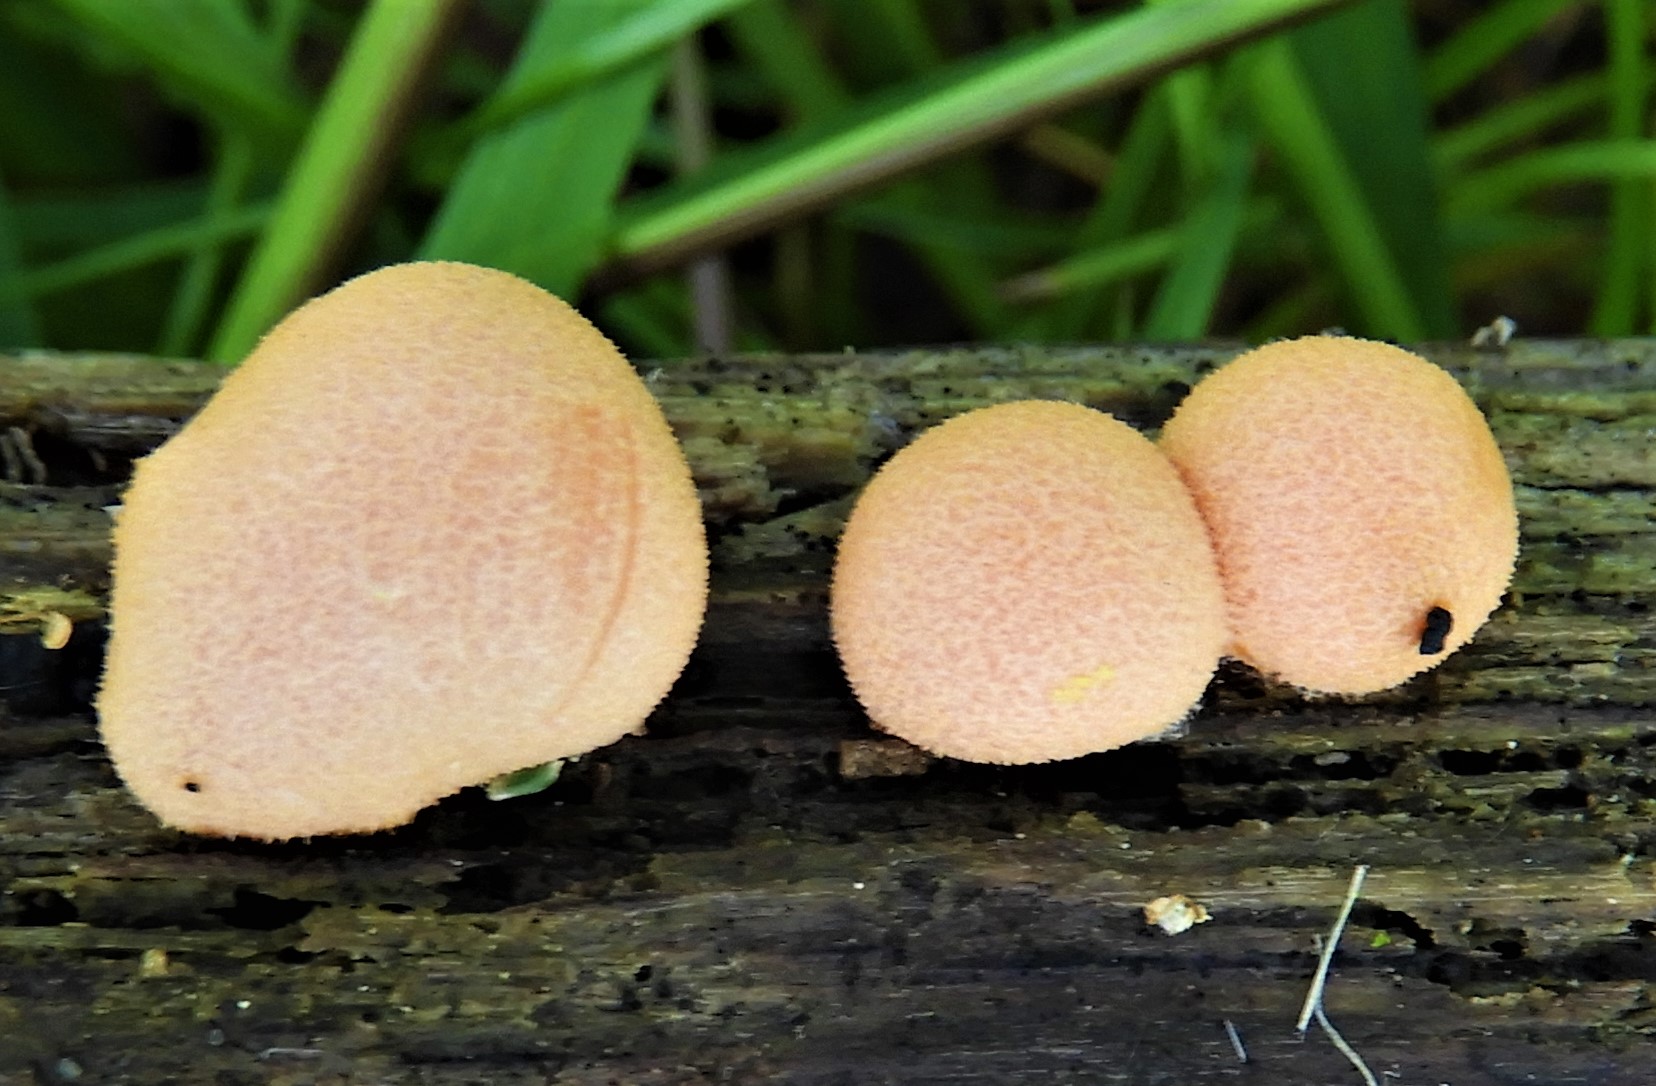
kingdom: Protozoa
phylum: Mycetozoa
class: Myxomycetes
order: Cribrariales
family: Tubiferaceae
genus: Lycogala
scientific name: Lycogala epidendrum
